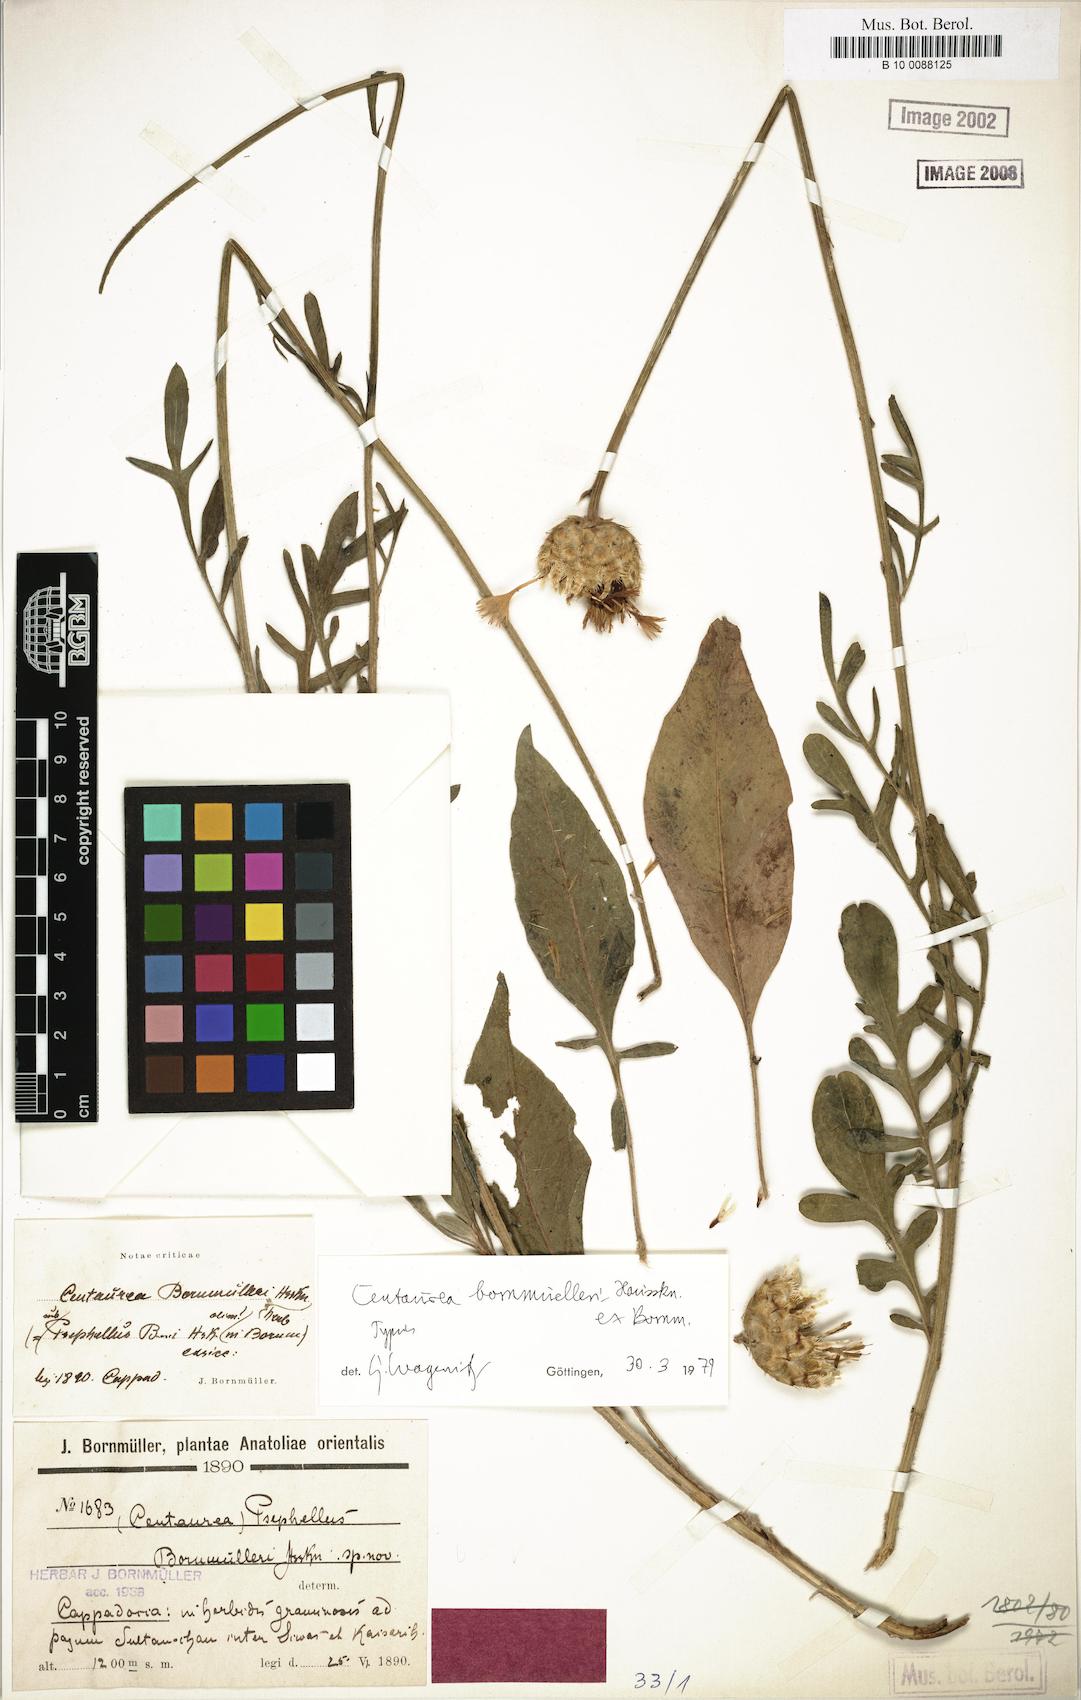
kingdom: Plantae
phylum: Tracheophyta
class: Magnoliopsida
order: Asterales
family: Asteraceae
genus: Psephellus
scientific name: Psephellus bornmuelleri
